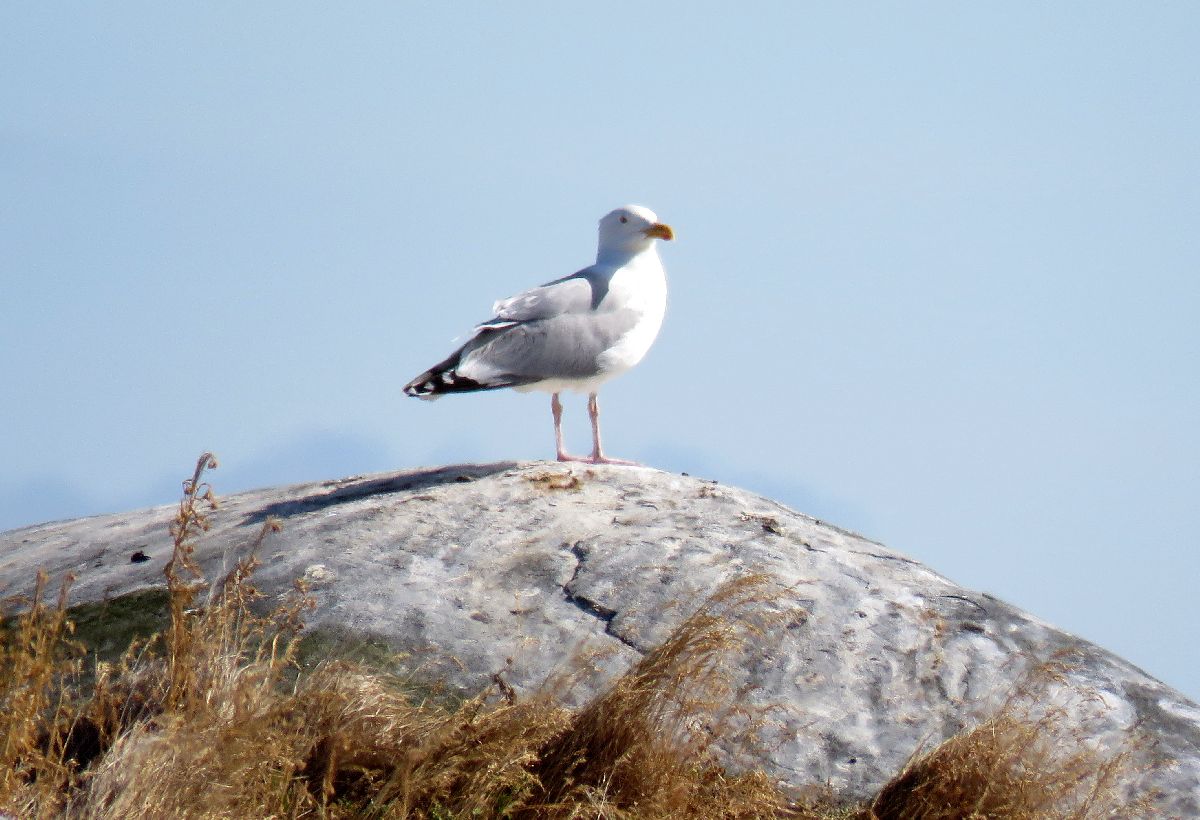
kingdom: Animalia
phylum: Chordata
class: Aves
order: Charadriiformes
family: Laridae
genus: Larus
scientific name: Larus argentatus
